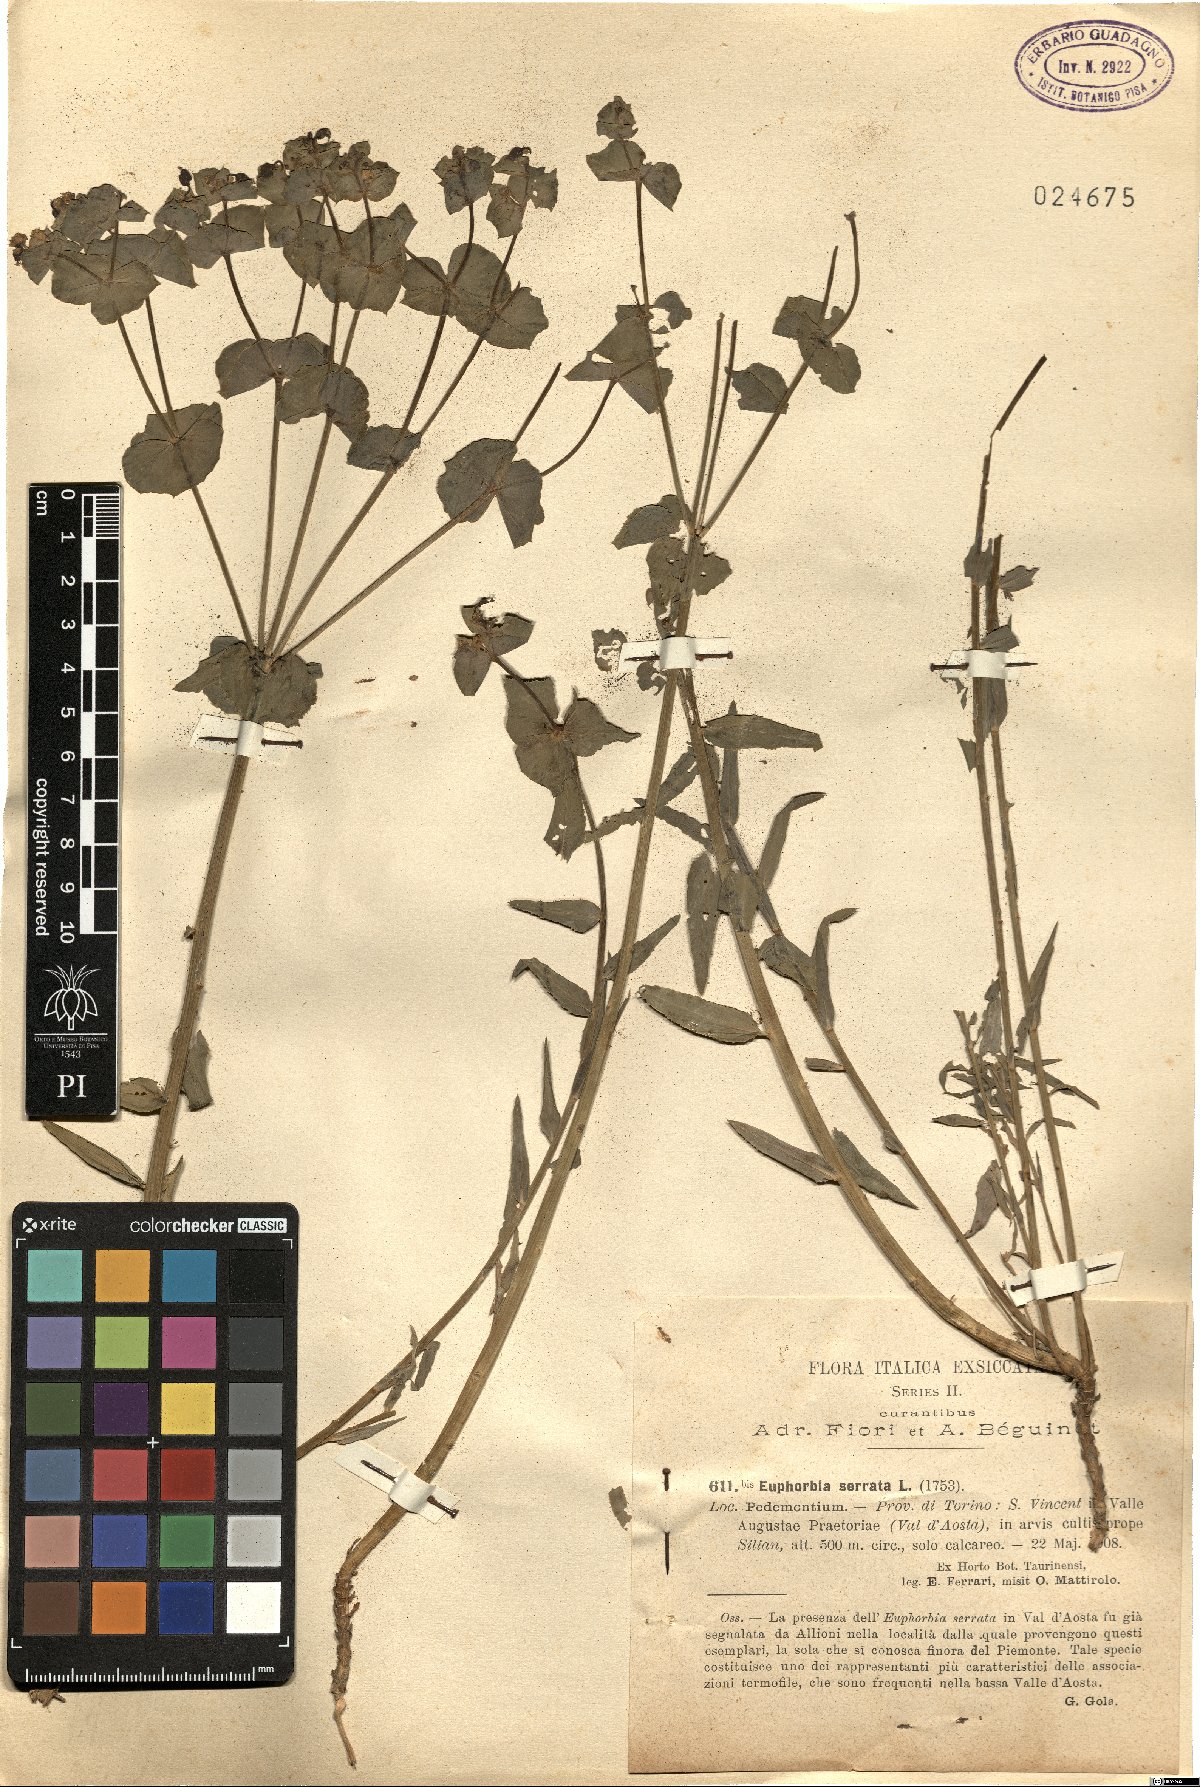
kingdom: Plantae
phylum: Tracheophyta
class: Magnoliopsida
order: Malpighiales
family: Euphorbiaceae
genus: Euphorbia
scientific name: Euphorbia serrata
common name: Serrate spurge
